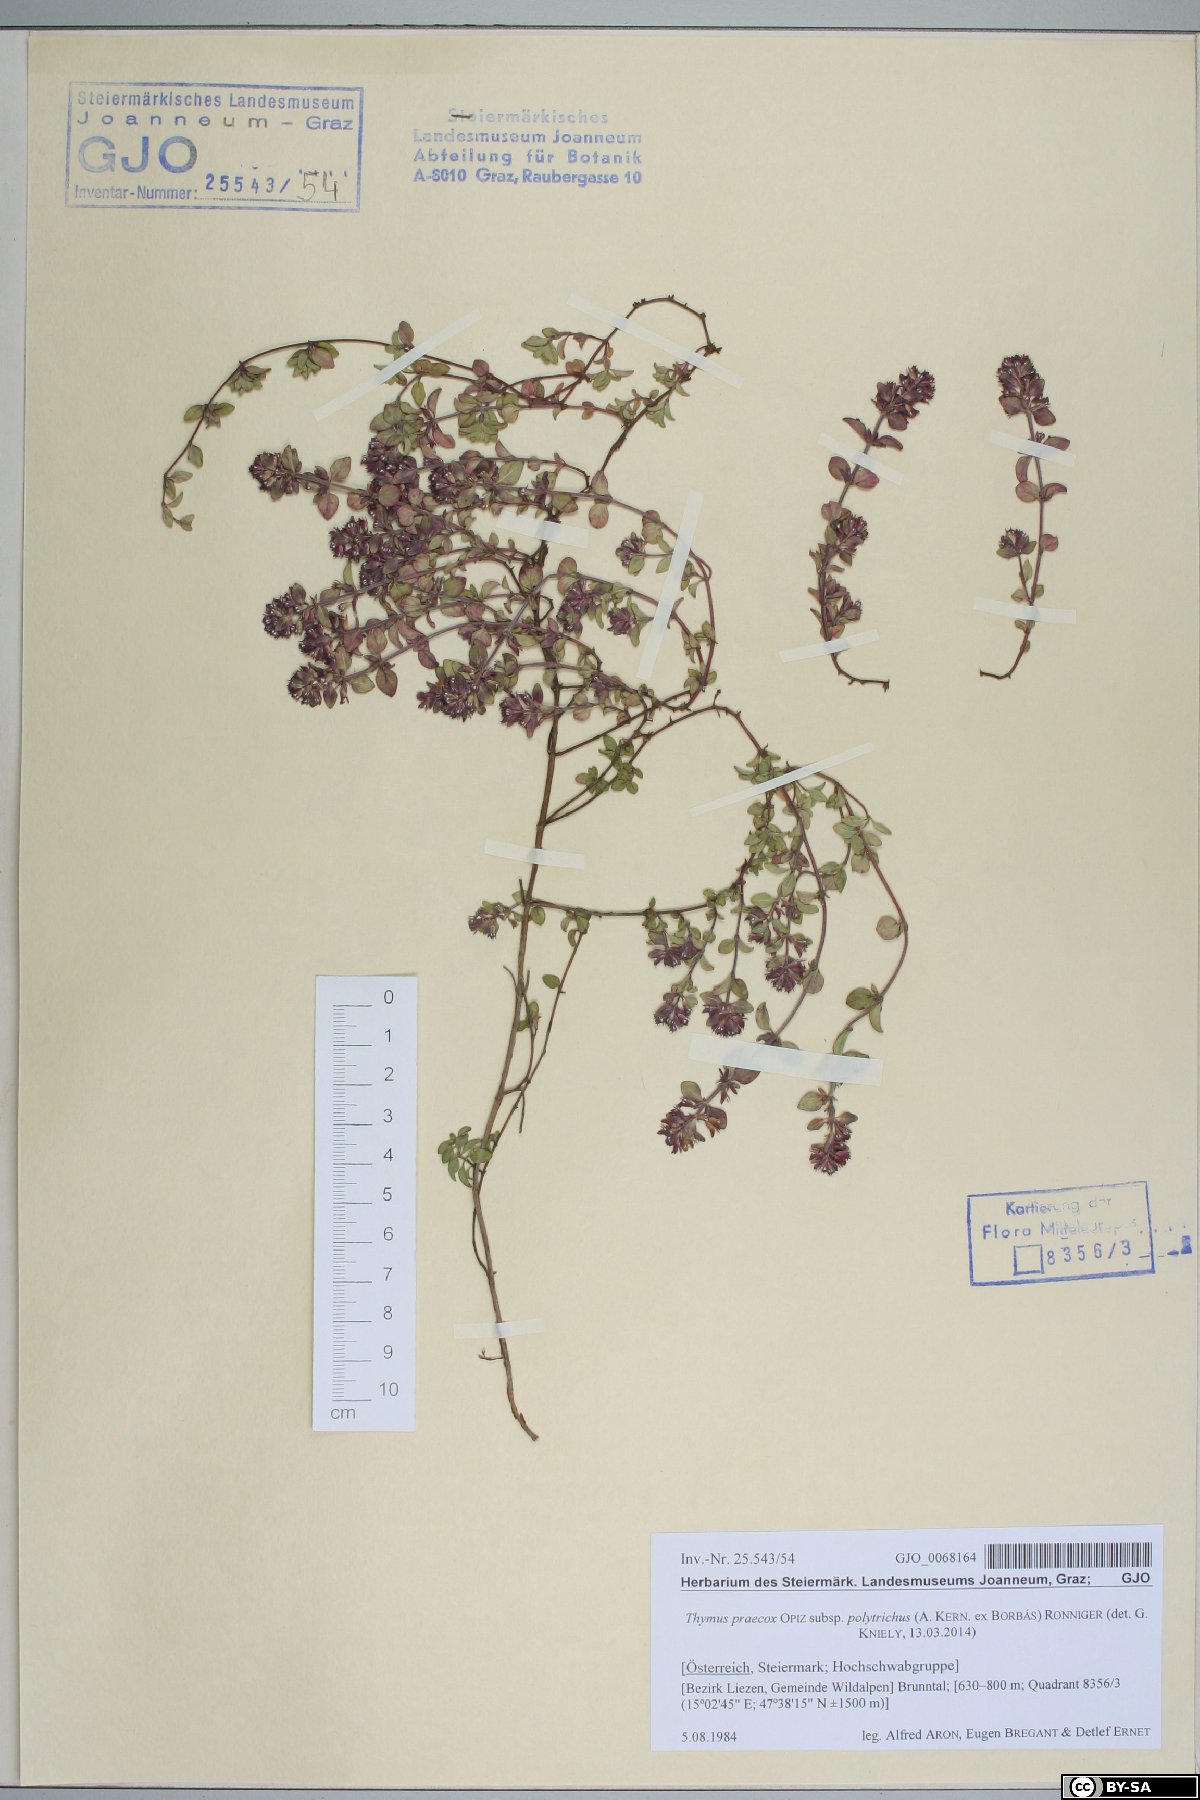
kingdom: Plantae
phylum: Tracheophyta
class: Magnoliopsida
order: Lamiales
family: Lamiaceae
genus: Thymus
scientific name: Thymus praecox
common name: Wild thyme
